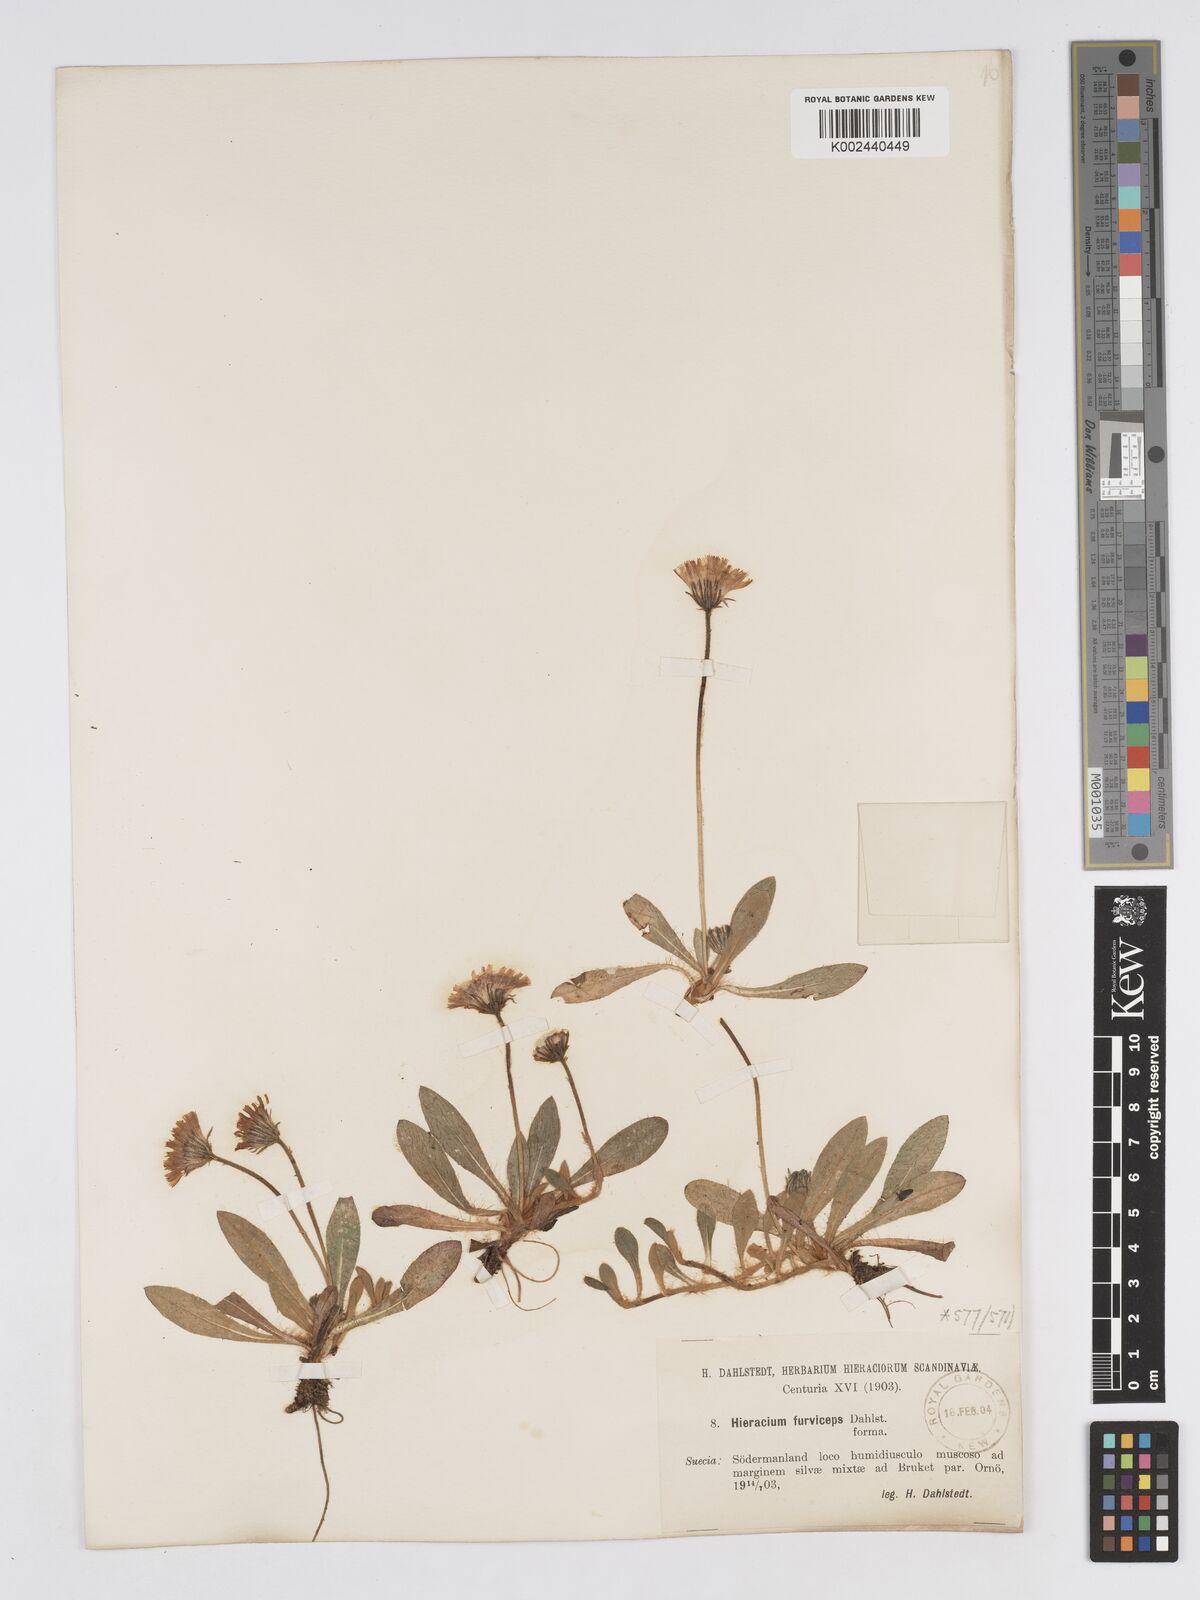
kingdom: Plantae
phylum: Tracheophyta
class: Magnoliopsida
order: Asterales
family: Asteraceae
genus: Pilosella
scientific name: Pilosella officinarum
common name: Mouse-ear hawkweed
